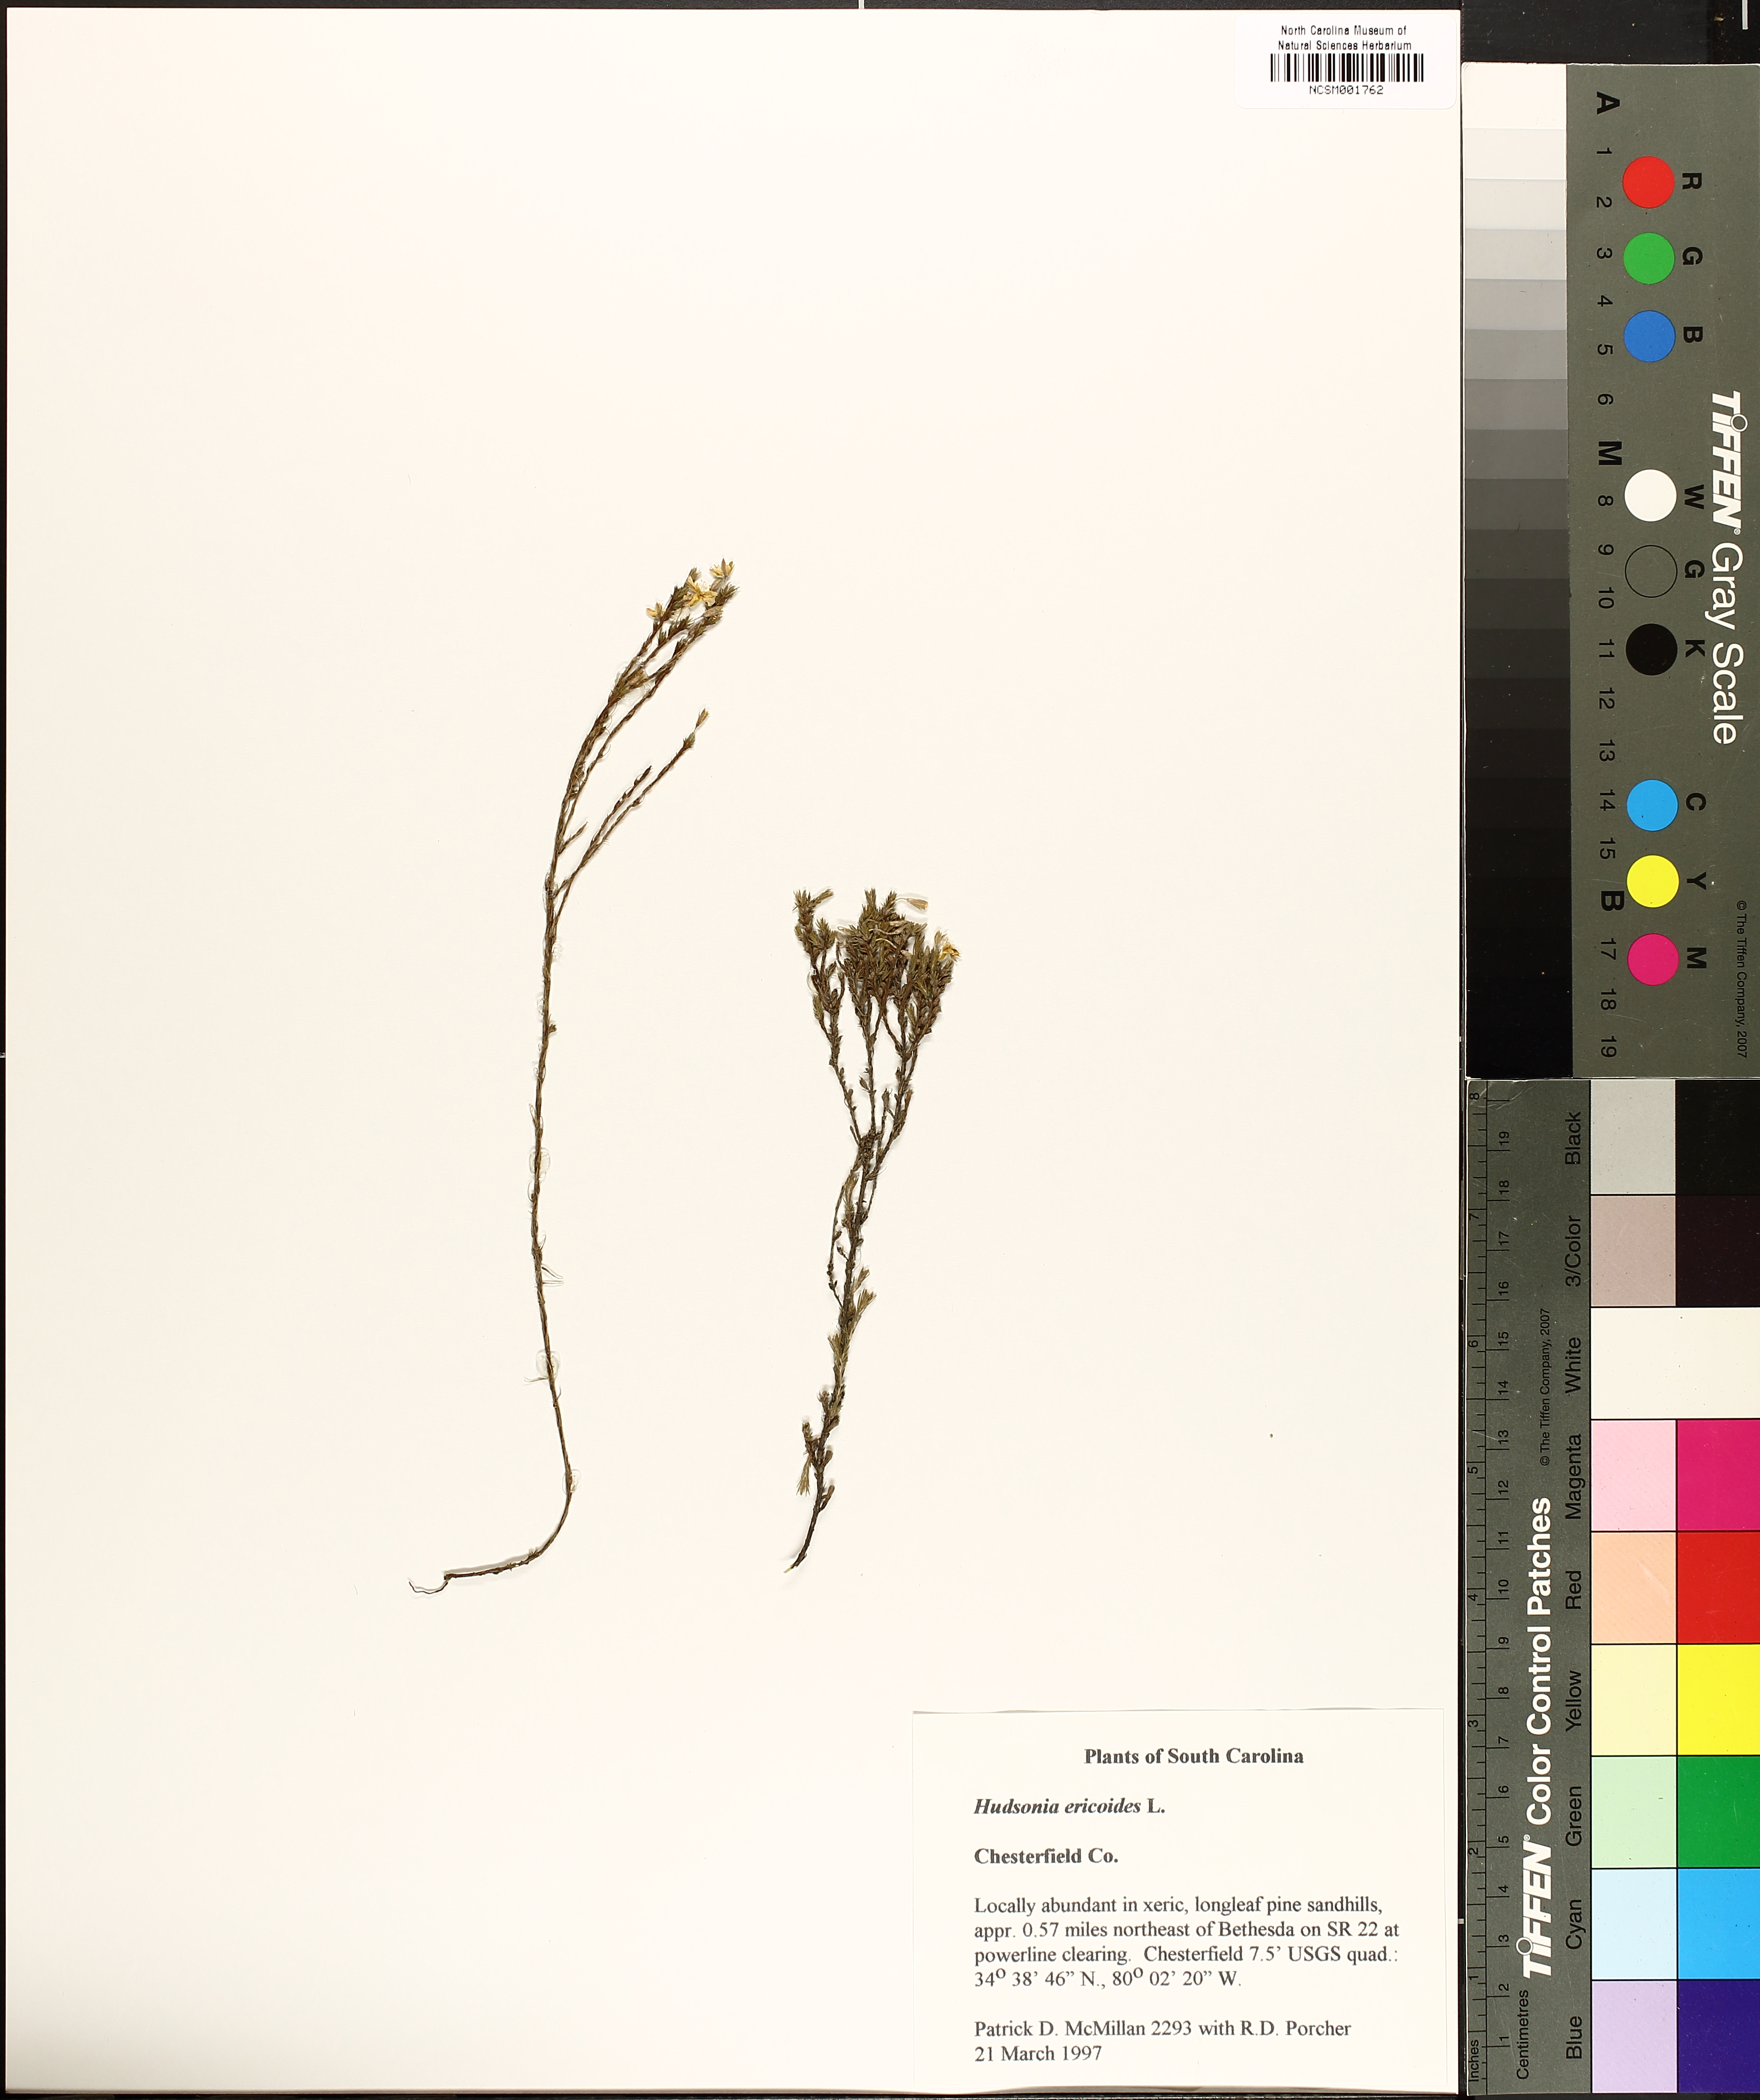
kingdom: Plantae
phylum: Tracheophyta
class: Magnoliopsida
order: Malvales
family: Cistaceae
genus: Hudsonia
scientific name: Hudsonia ericoides
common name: Golden-heather
